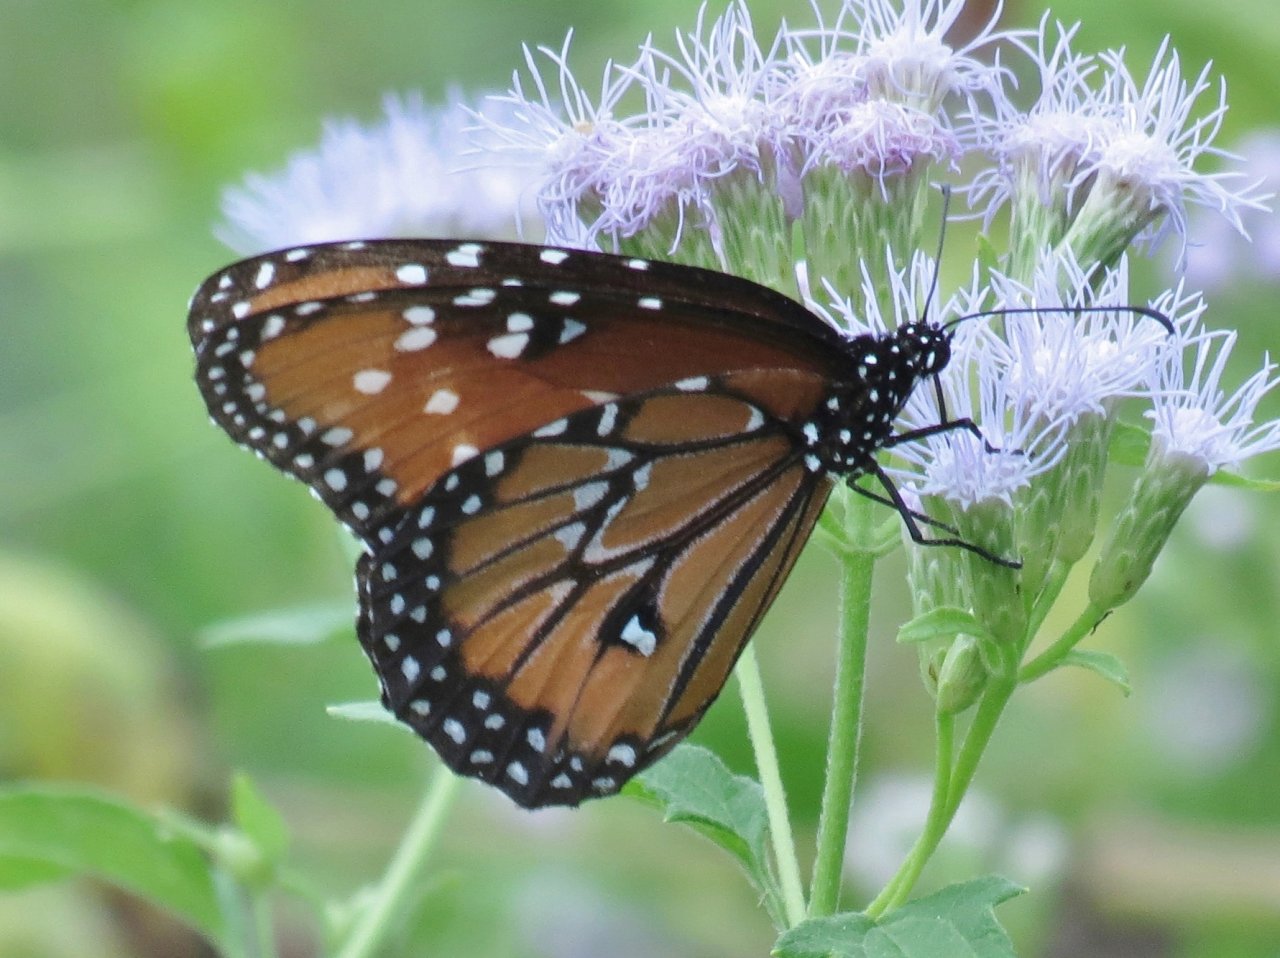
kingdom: Animalia
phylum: Arthropoda
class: Insecta
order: Lepidoptera
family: Nymphalidae
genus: Danaus
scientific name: Danaus gilippus
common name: Queen
